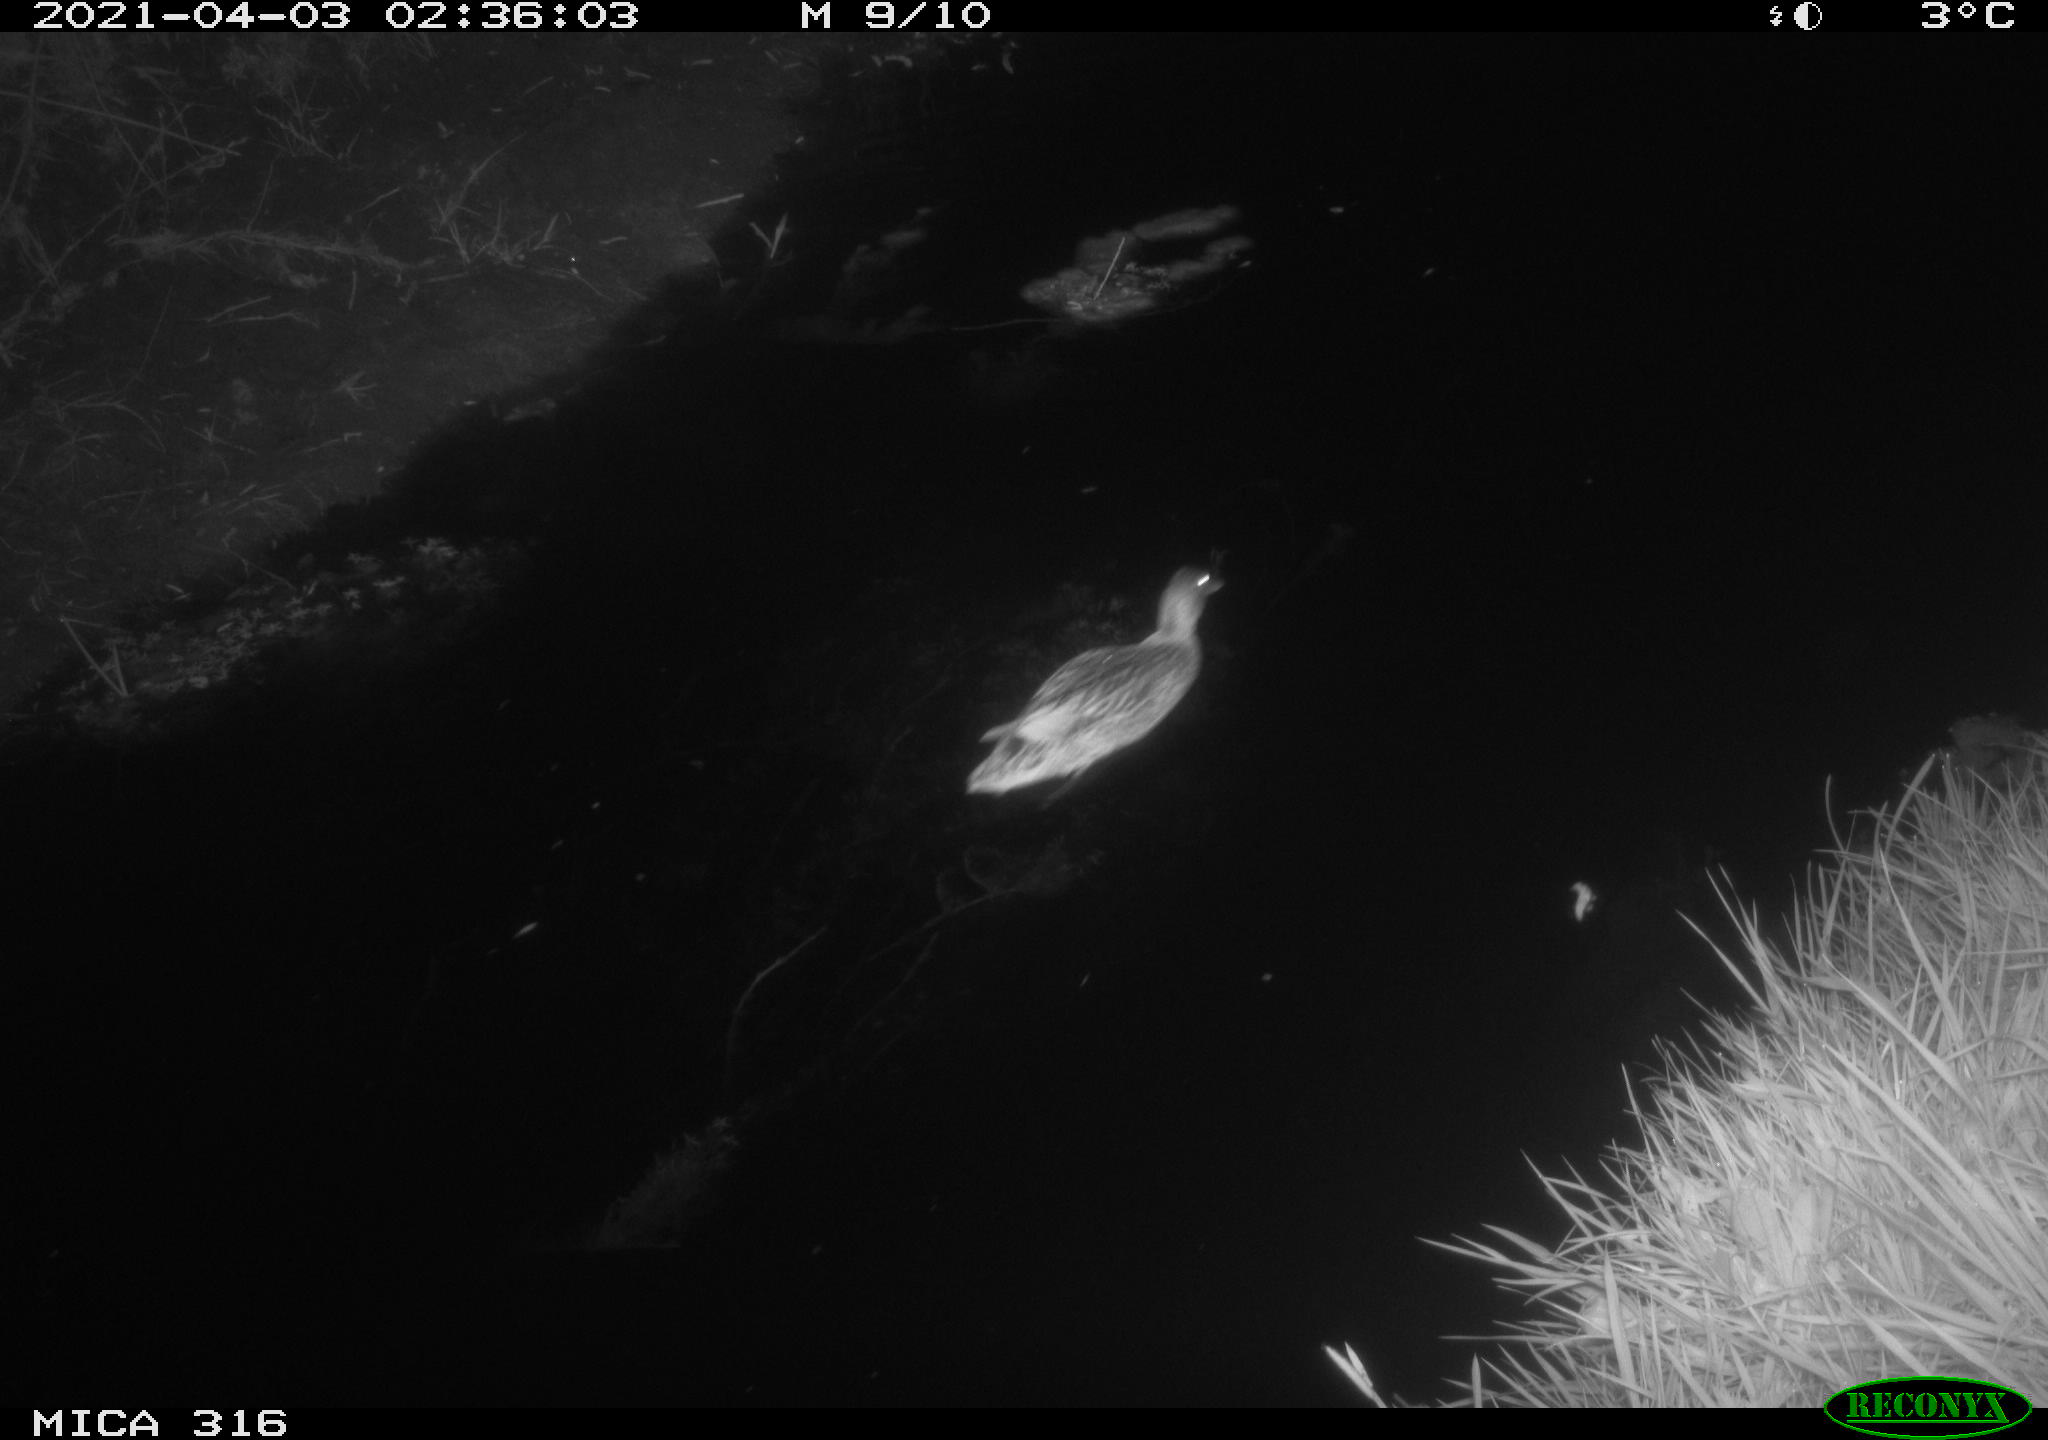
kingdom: Animalia
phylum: Chordata
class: Aves
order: Anseriformes
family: Anatidae
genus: Anas
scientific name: Anas platyrhynchos
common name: Mallard
